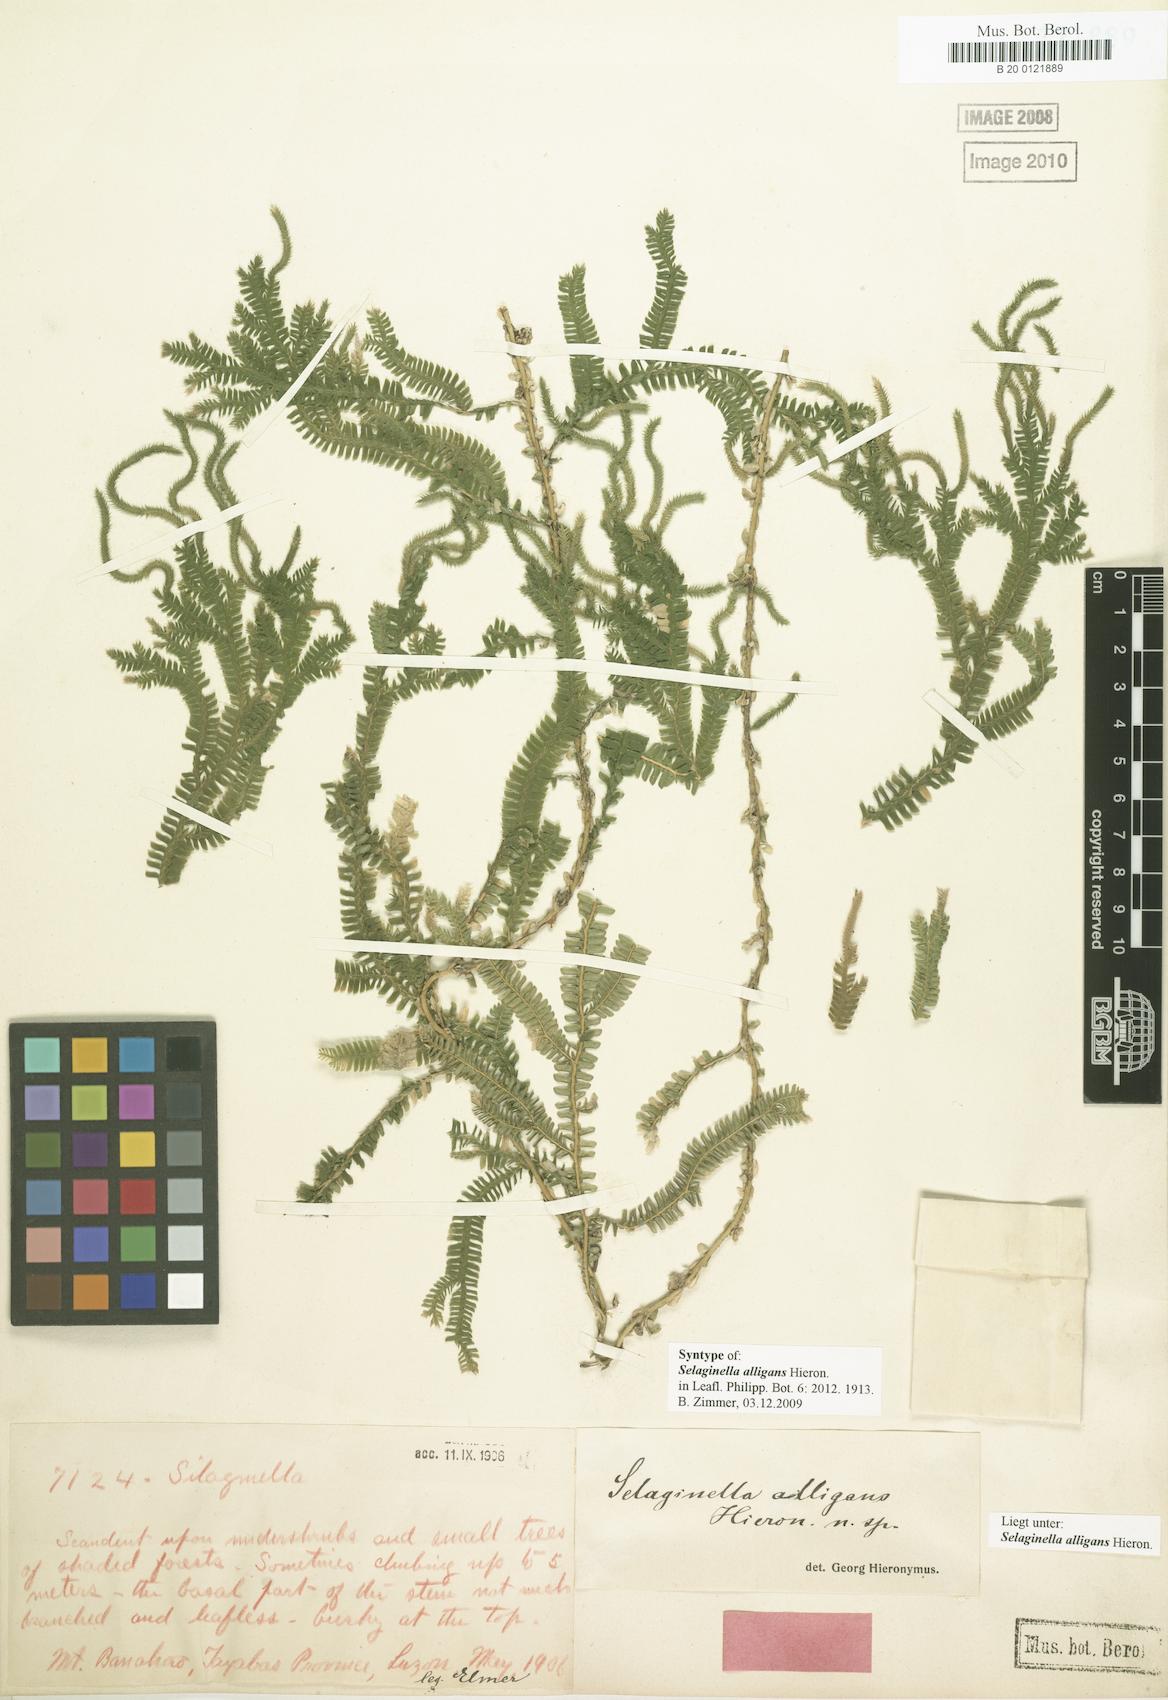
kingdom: Plantae
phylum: Tracheophyta
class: Lycopodiopsida
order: Selaginellales
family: Selaginellaceae
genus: Selaginella
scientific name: Selaginella alligans
